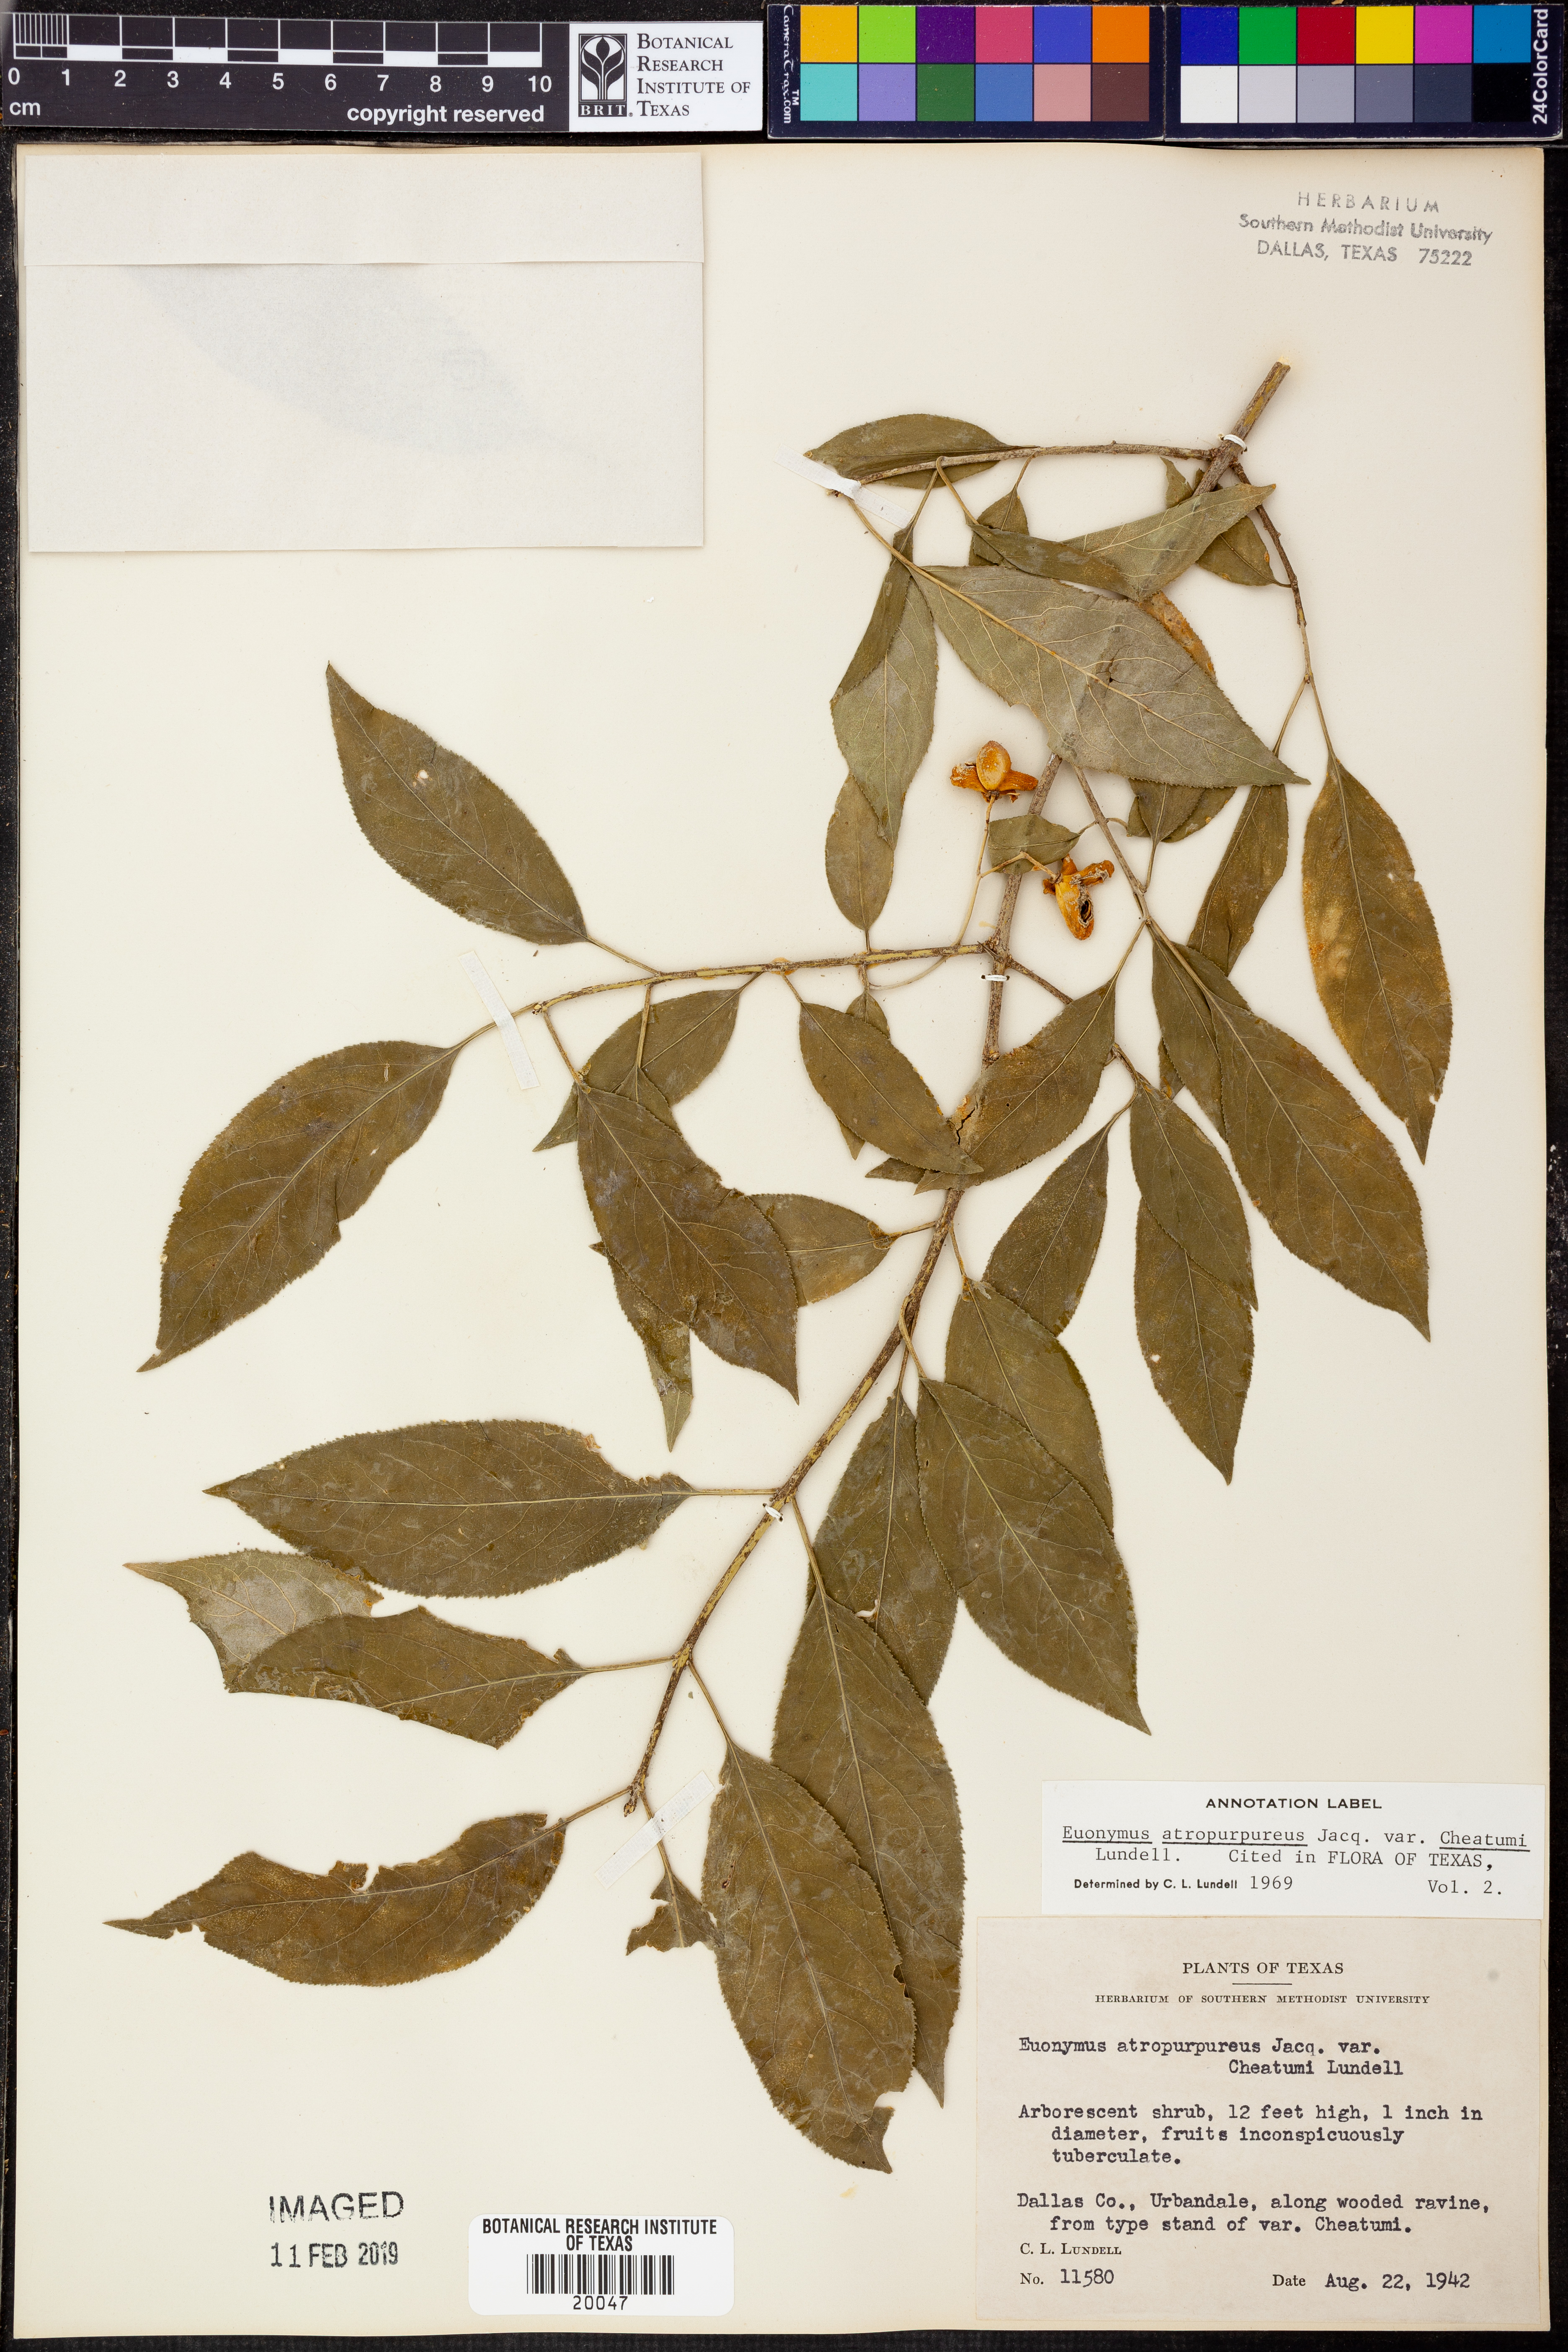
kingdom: Plantae
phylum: Tracheophyta
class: Magnoliopsida
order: Celastrales
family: Celastraceae
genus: Euonymus
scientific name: Euonymus atropurpureus
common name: Eastern wahoo
